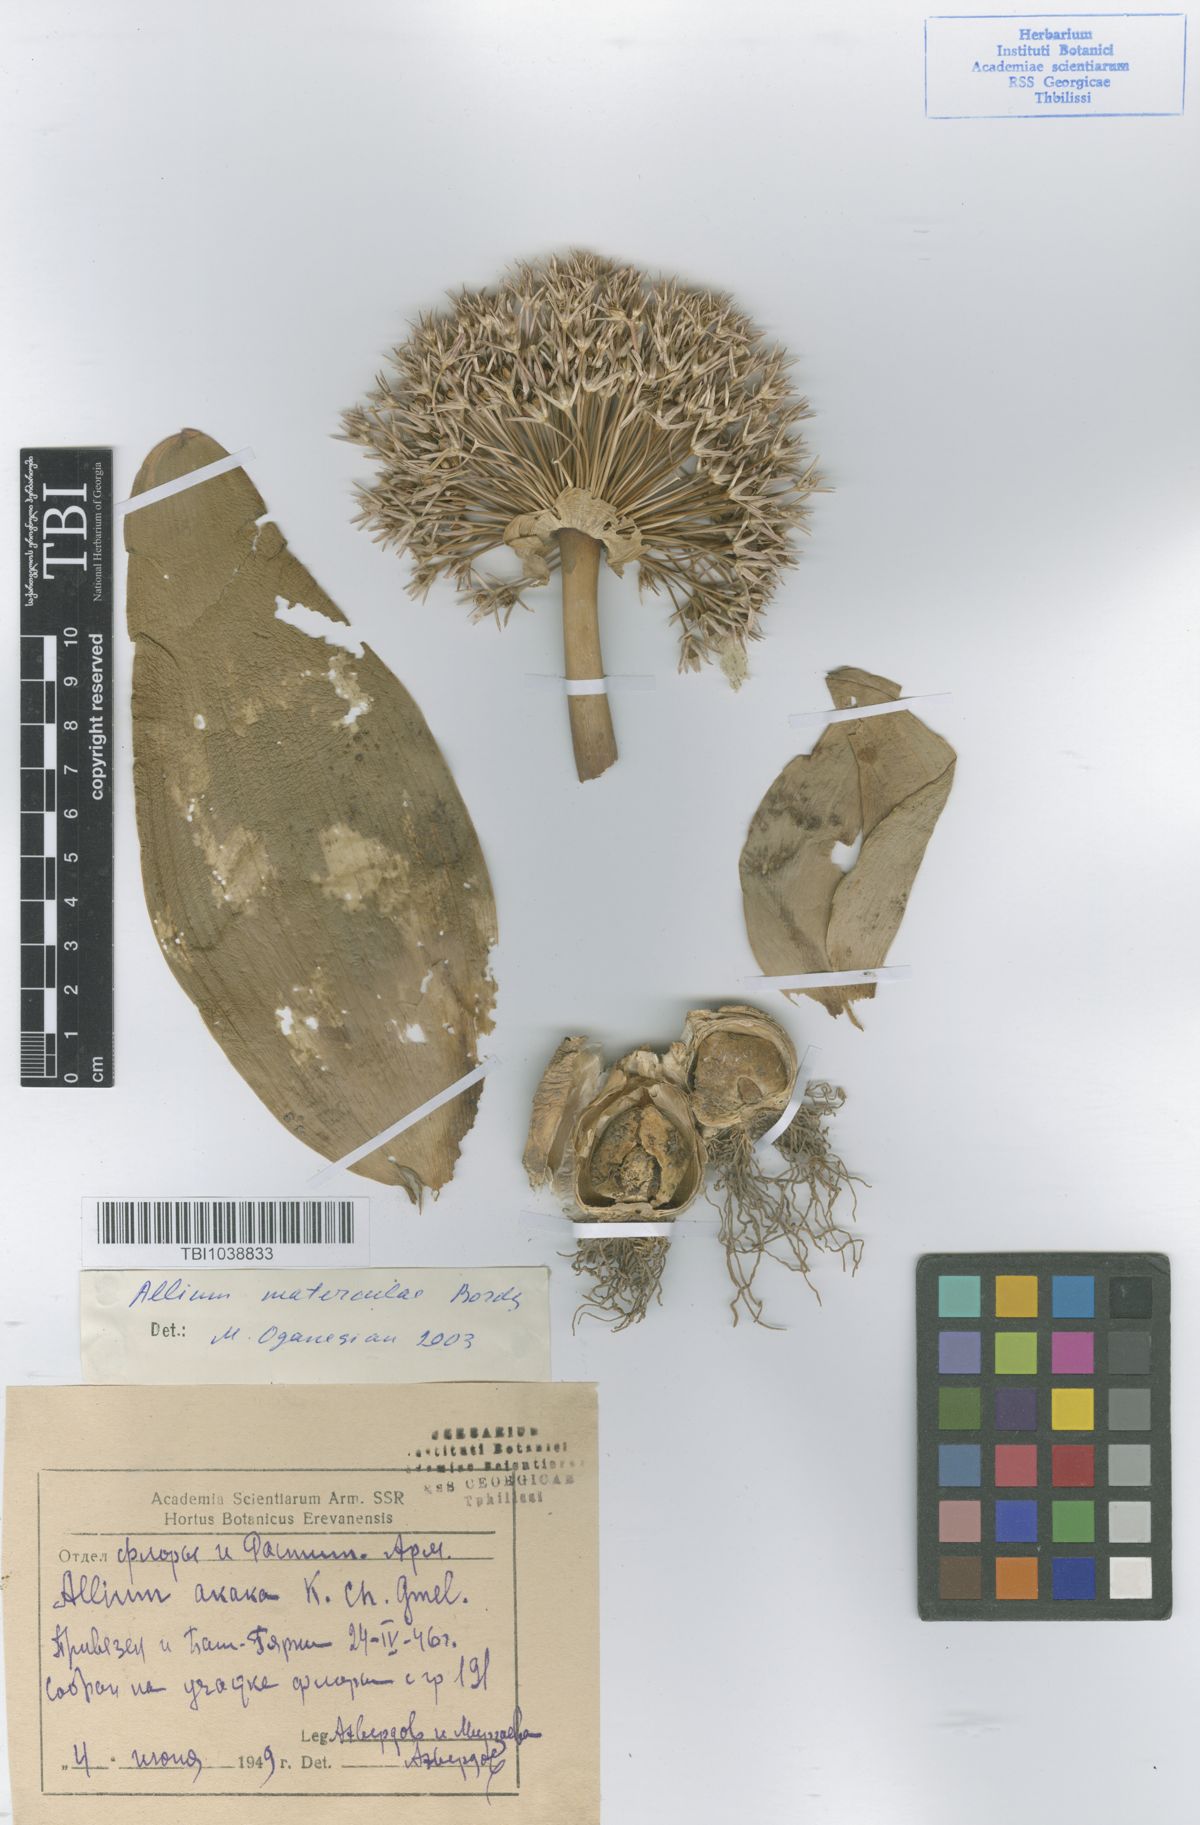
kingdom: Plantae
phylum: Tracheophyta
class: Liliopsida
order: Asparagales
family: Amaryllidaceae
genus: Allium
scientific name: Allium materculae
